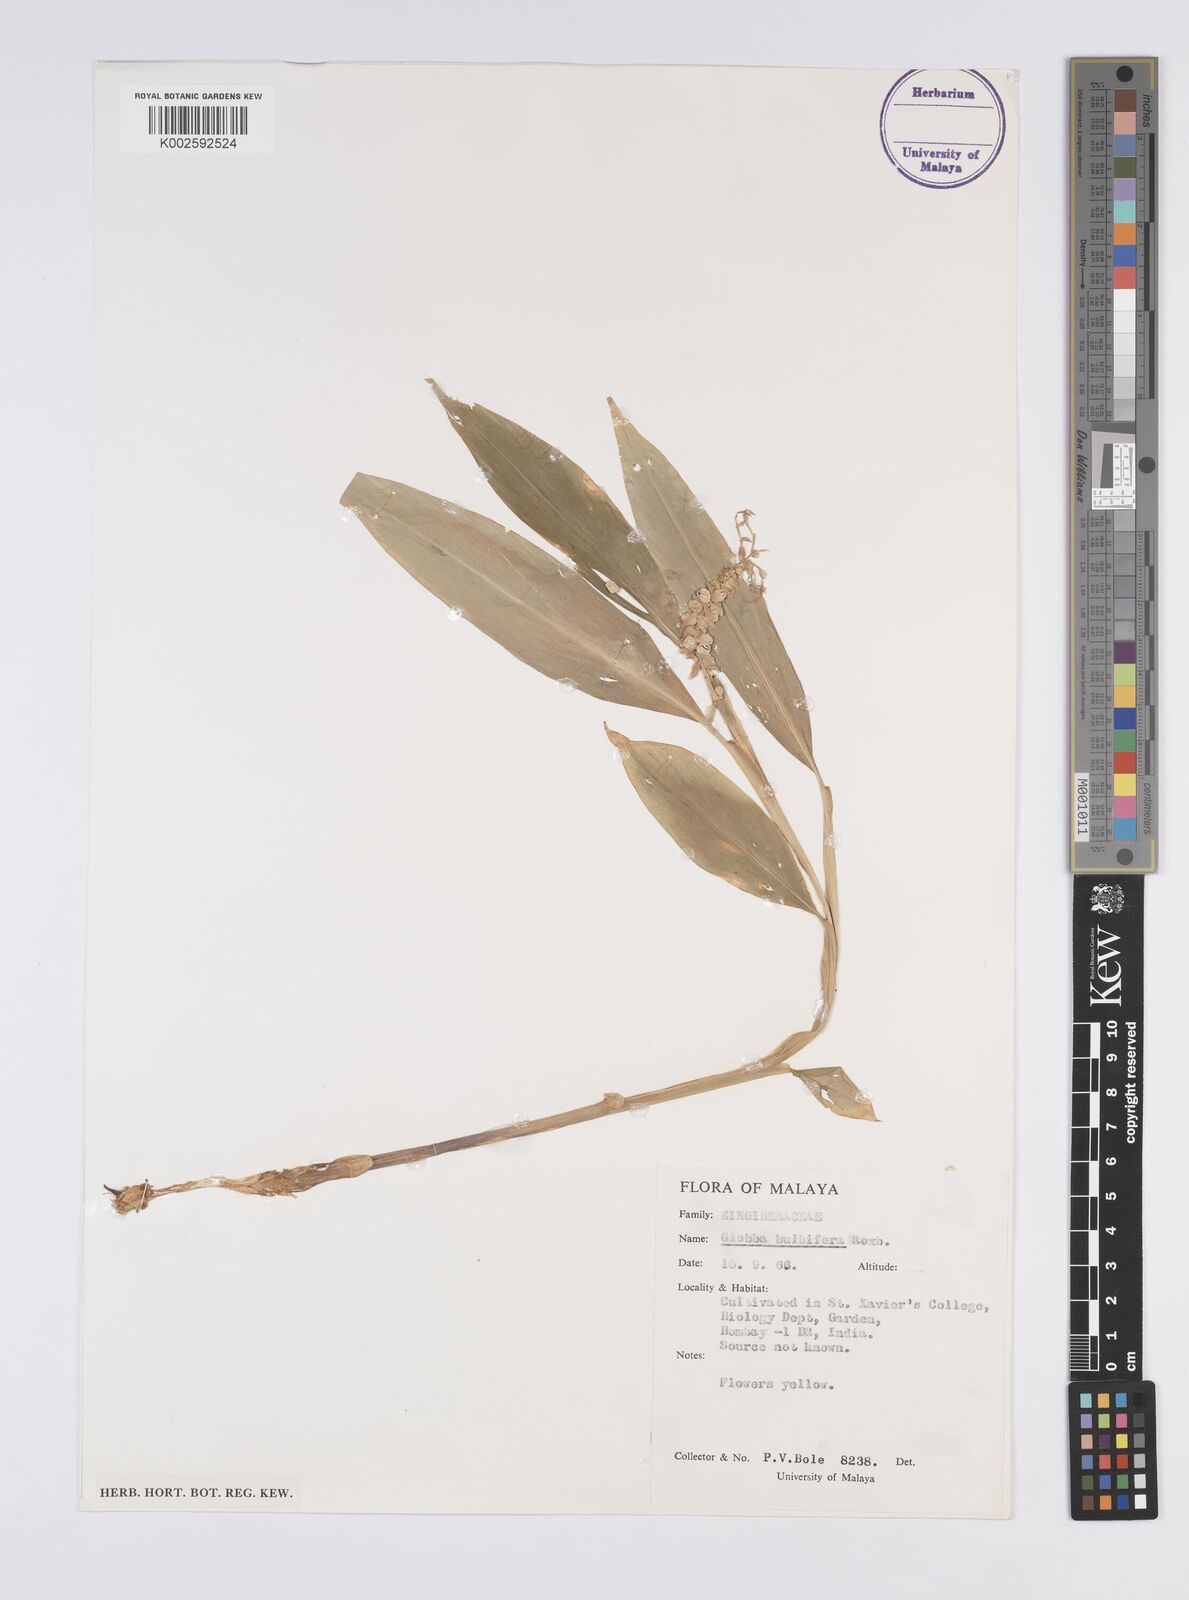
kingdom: Plantae
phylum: Tracheophyta
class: Liliopsida
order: Zingiberales
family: Zingiberaceae
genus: Globba
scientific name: Globba marantina
